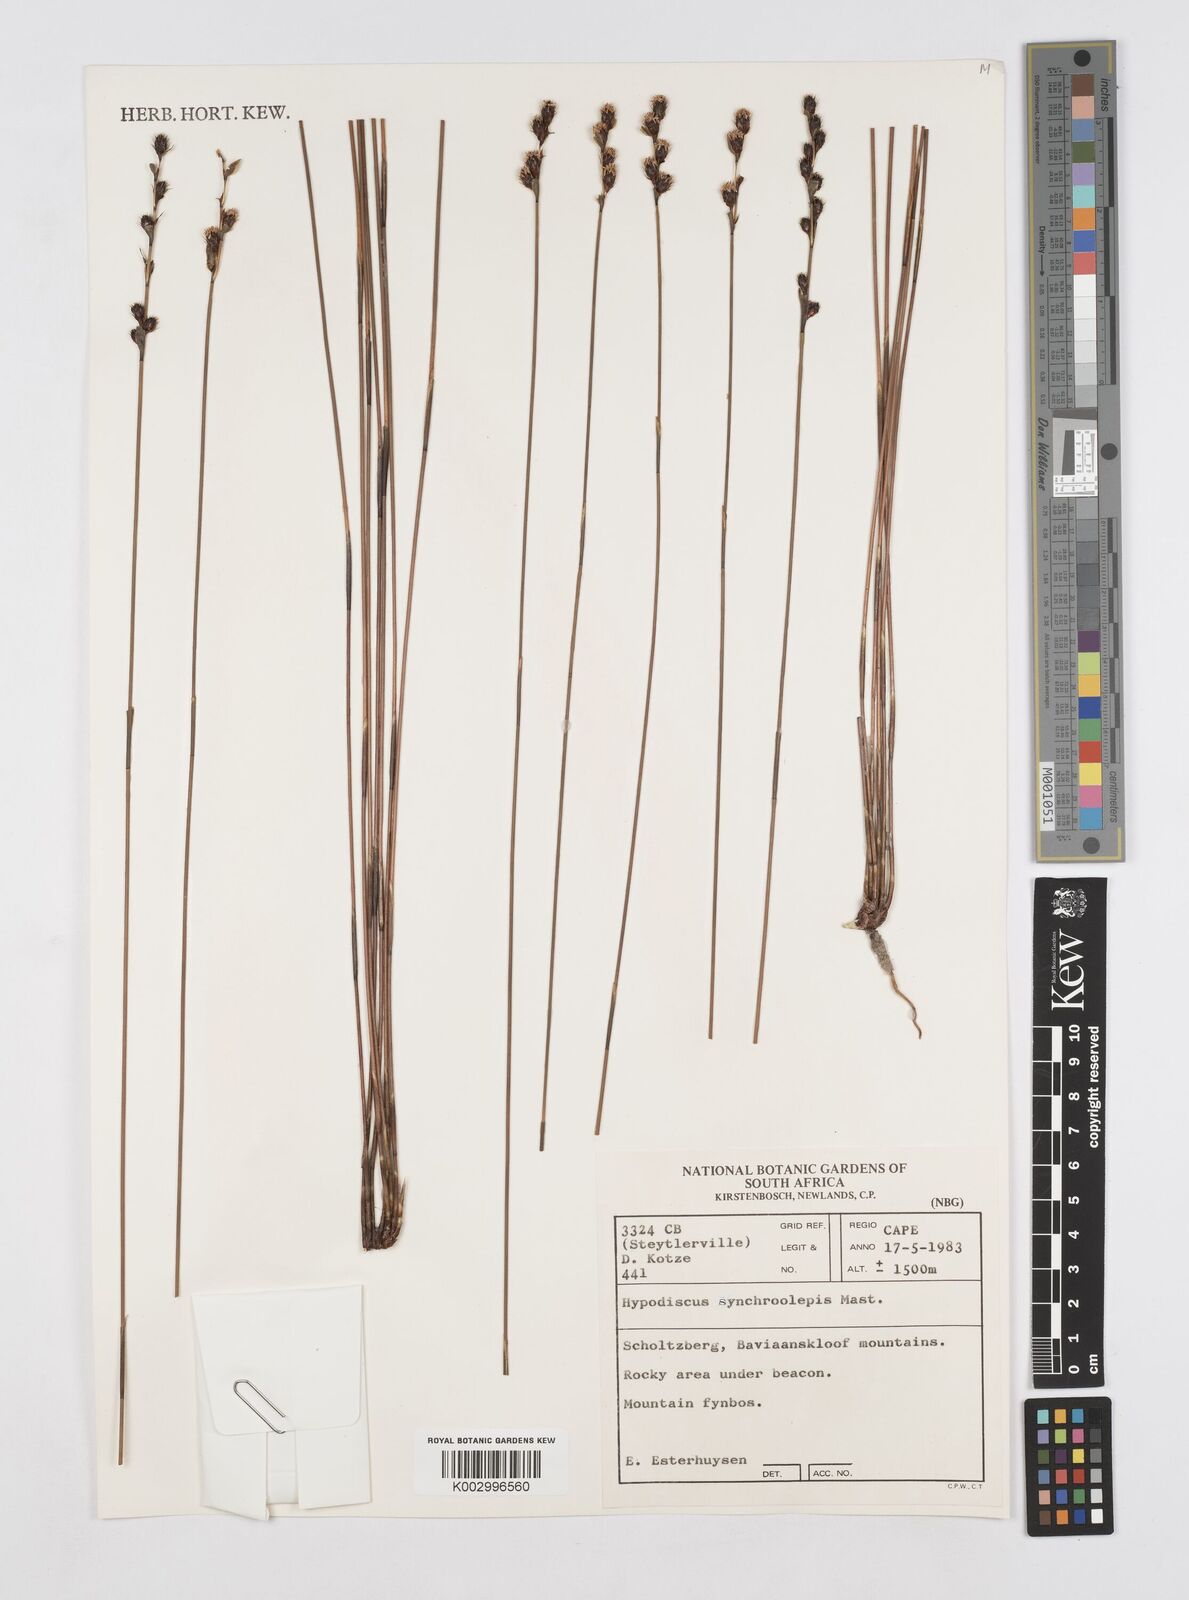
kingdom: Plantae
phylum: Tracheophyta
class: Liliopsida
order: Poales
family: Restionaceae
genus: Hypodiscus
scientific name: Hypodiscus synchroolepis
